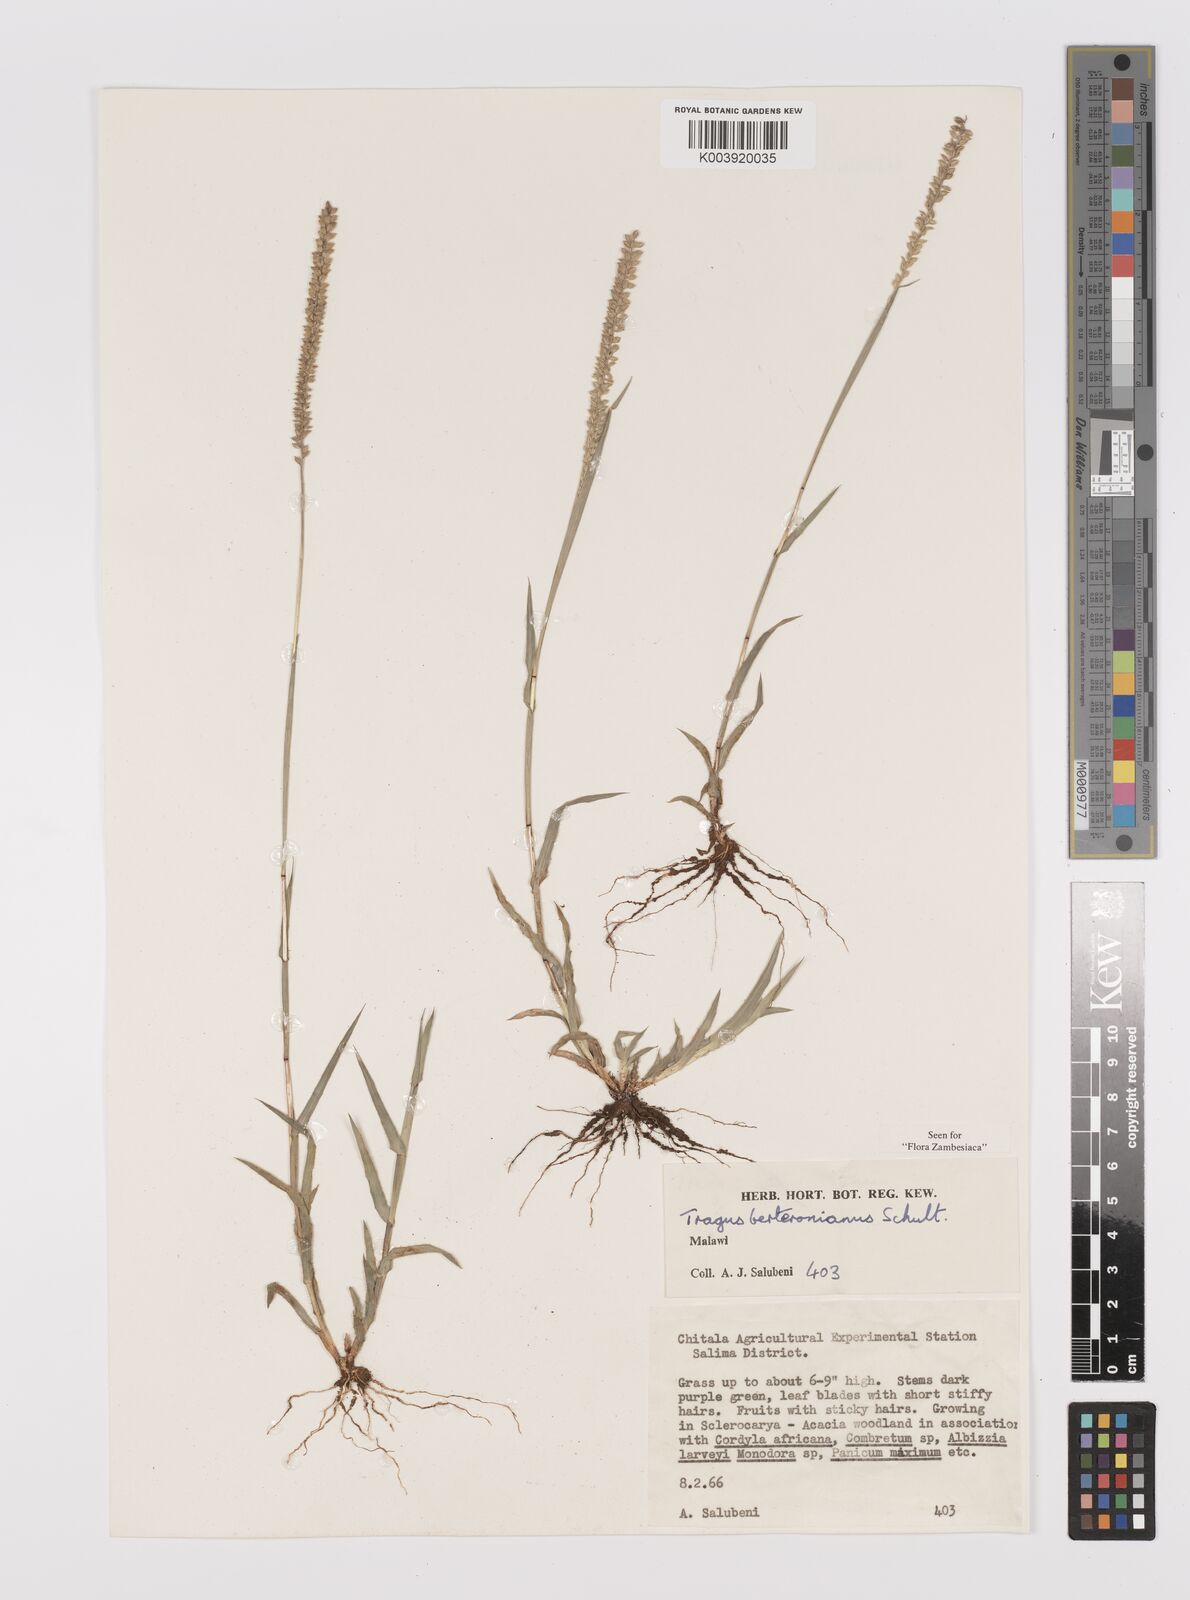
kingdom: Plantae
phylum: Tracheophyta
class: Liliopsida
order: Poales
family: Poaceae
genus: Tragus
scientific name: Tragus berteronianus
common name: African bur-grass
